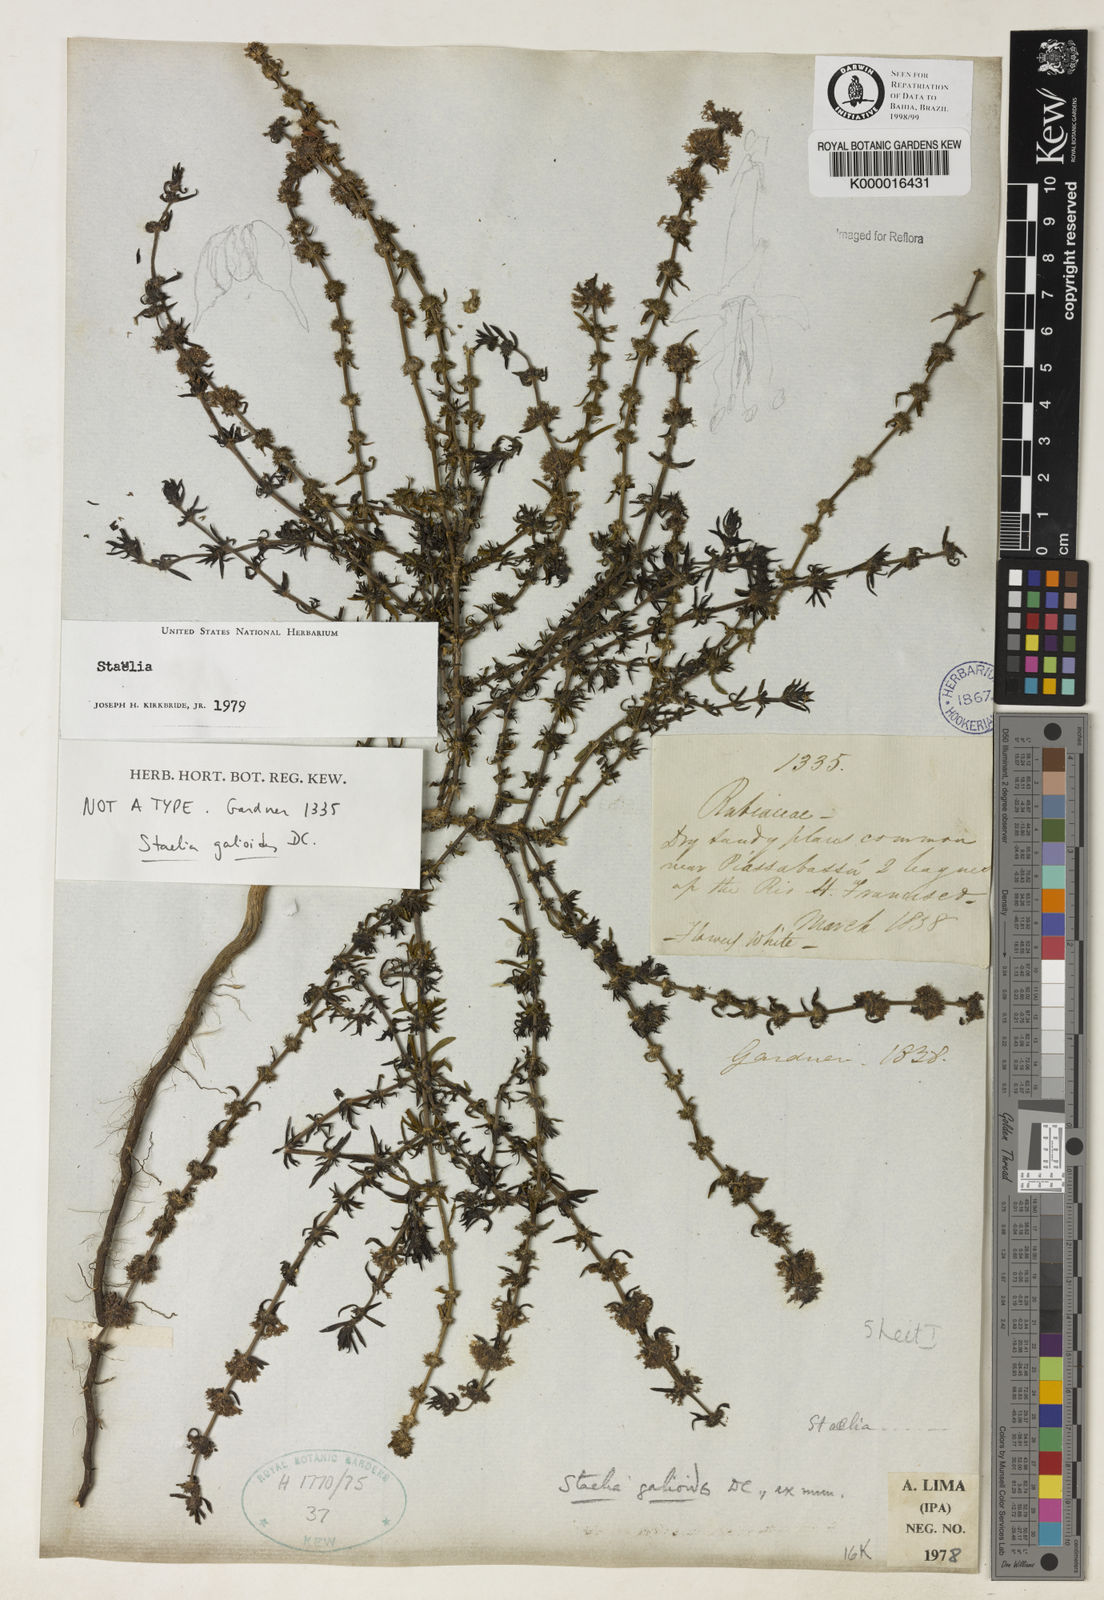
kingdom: Plantae
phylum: Tracheophyta
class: Magnoliopsida
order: Gentianales
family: Rubiaceae
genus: Staelia
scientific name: Staelia galioides
